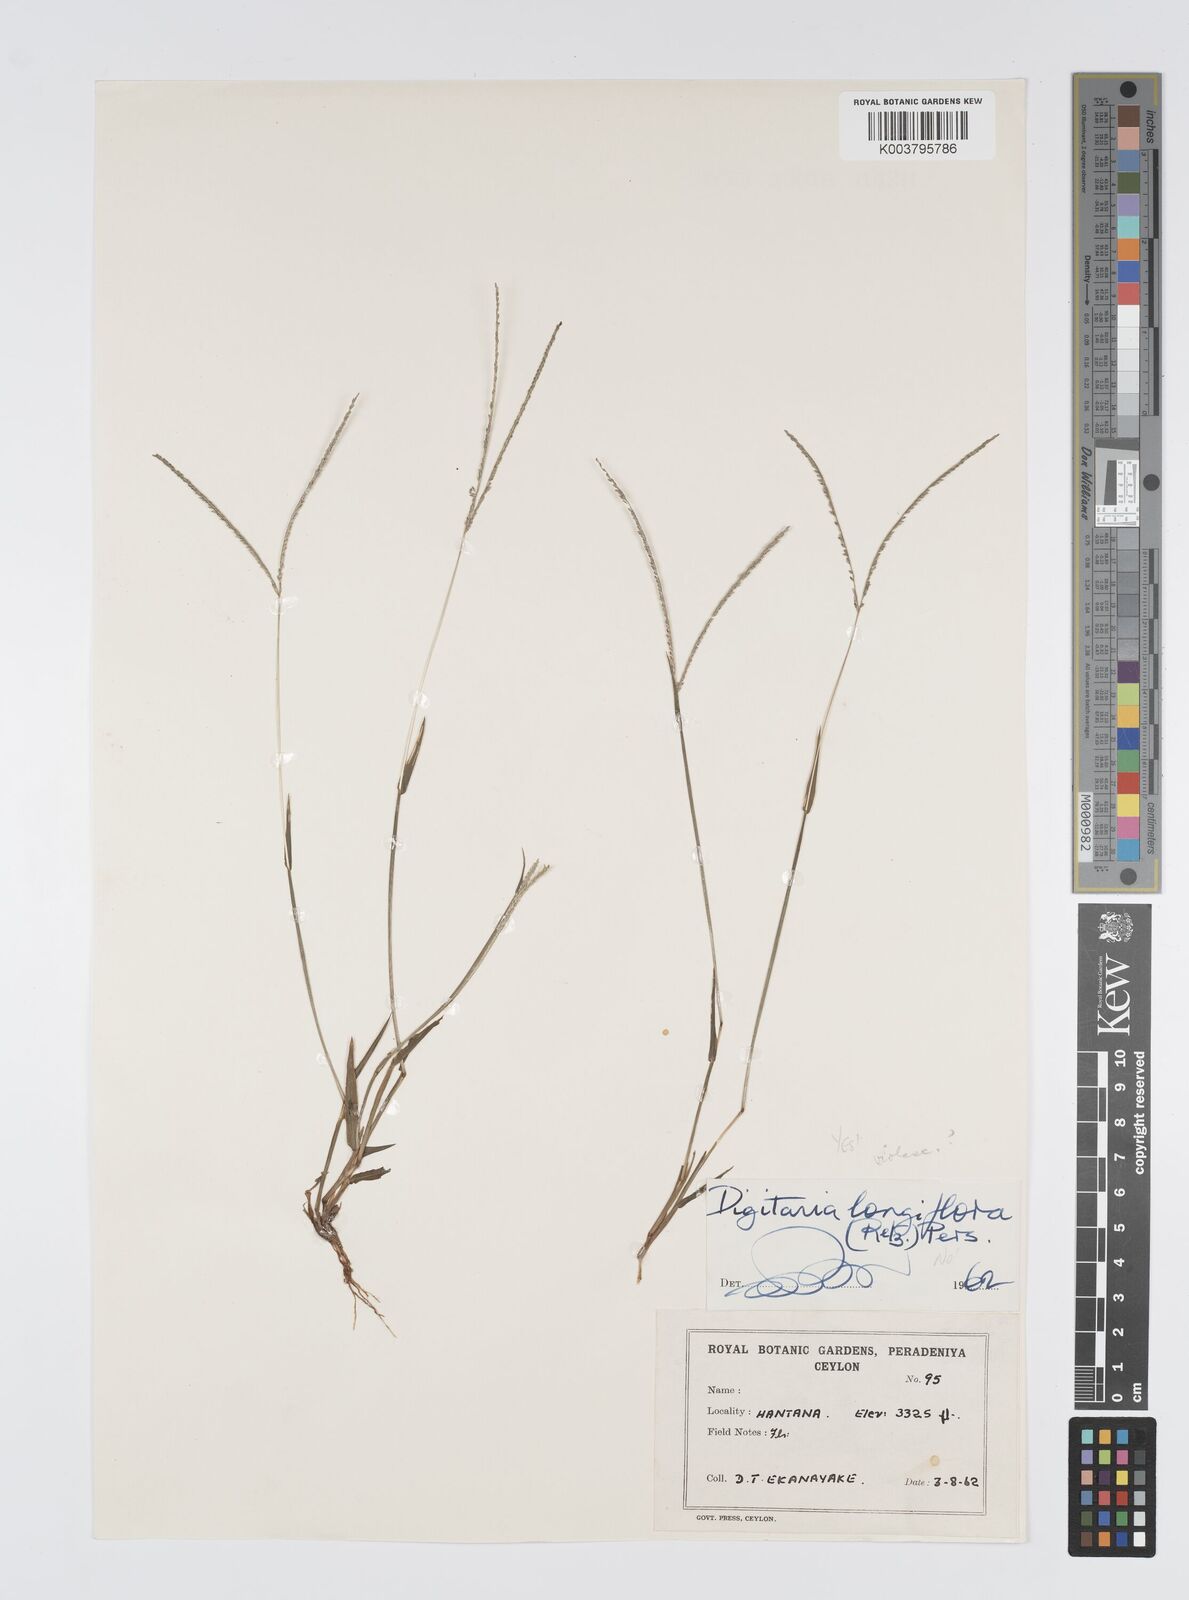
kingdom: Plantae
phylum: Tracheophyta
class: Liliopsida
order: Poales
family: Poaceae
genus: Digitaria
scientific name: Digitaria violascens
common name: Violet crabgrass
